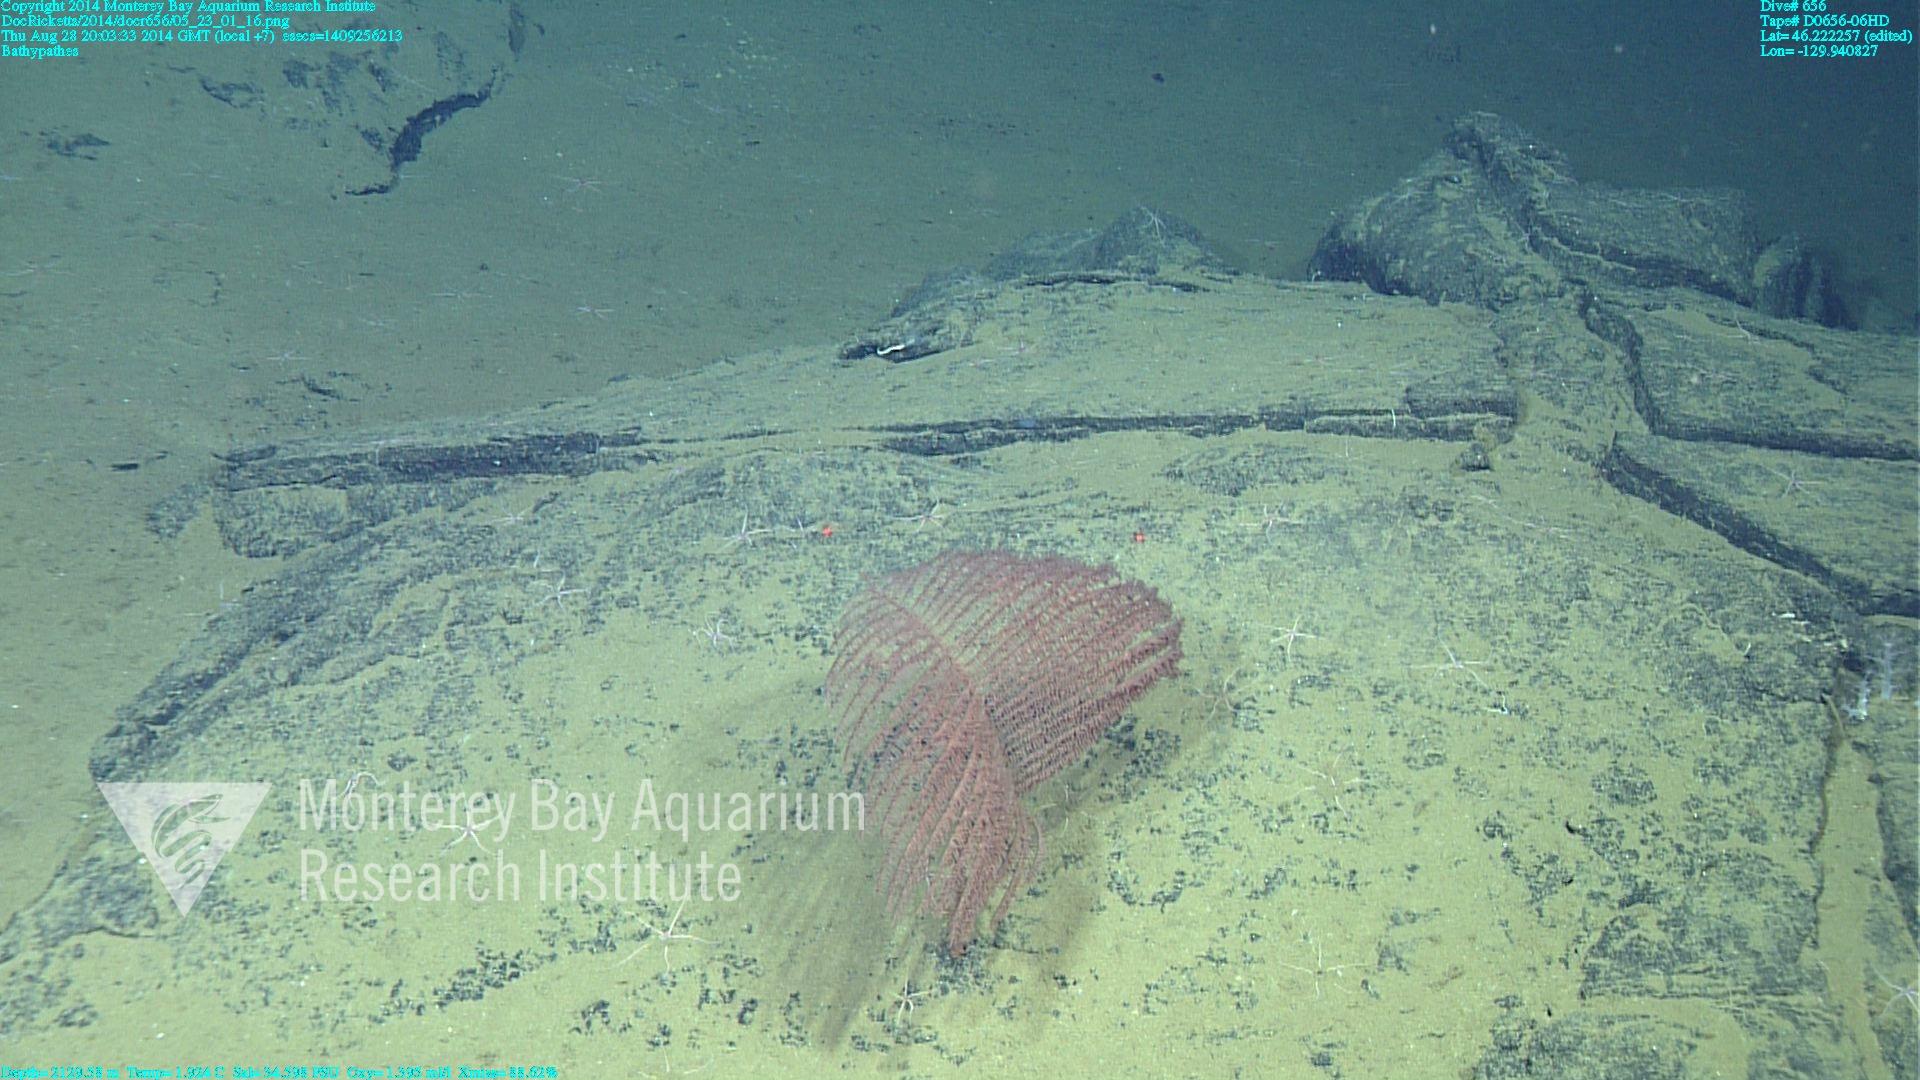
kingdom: Animalia
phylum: Cnidaria
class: Anthozoa
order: Antipatharia
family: Schizopathidae
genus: Bathypathes
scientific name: Bathypathes
